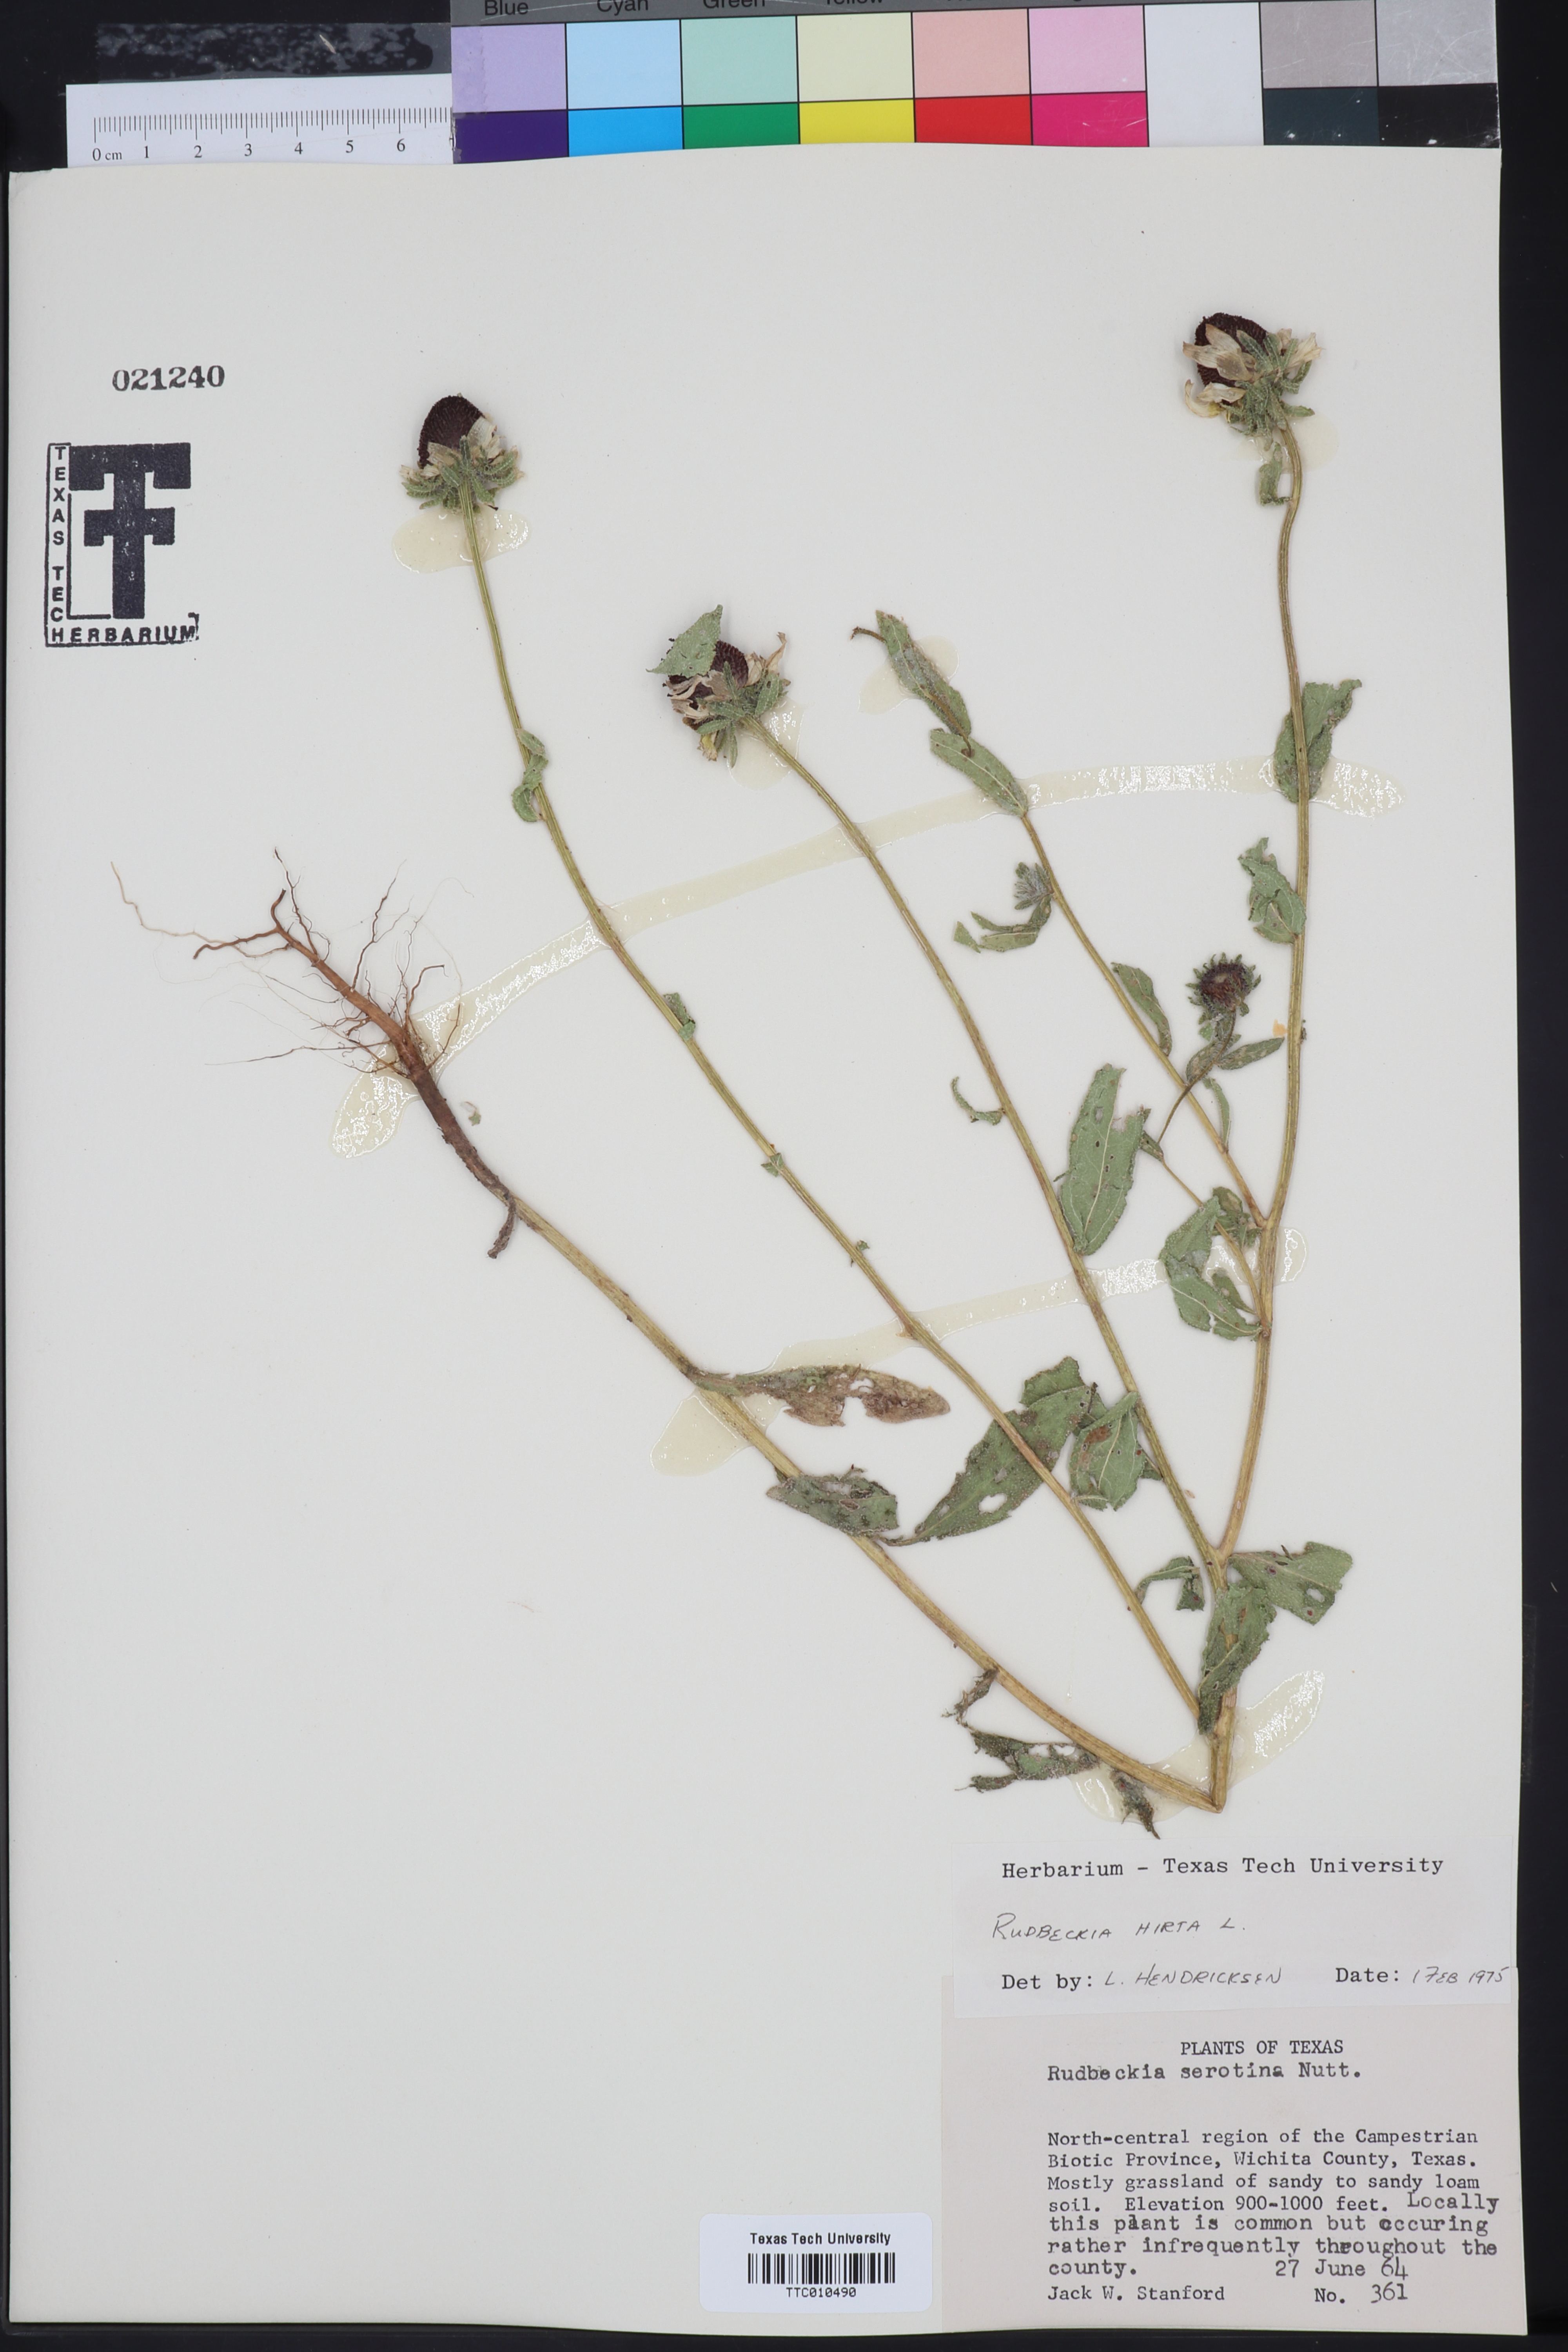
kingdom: Plantae
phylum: Tracheophyta
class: Magnoliopsida
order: Asterales
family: Asteraceae
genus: Rudbeckia
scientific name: Rudbeckia hirta
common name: Black-eyed-susan
